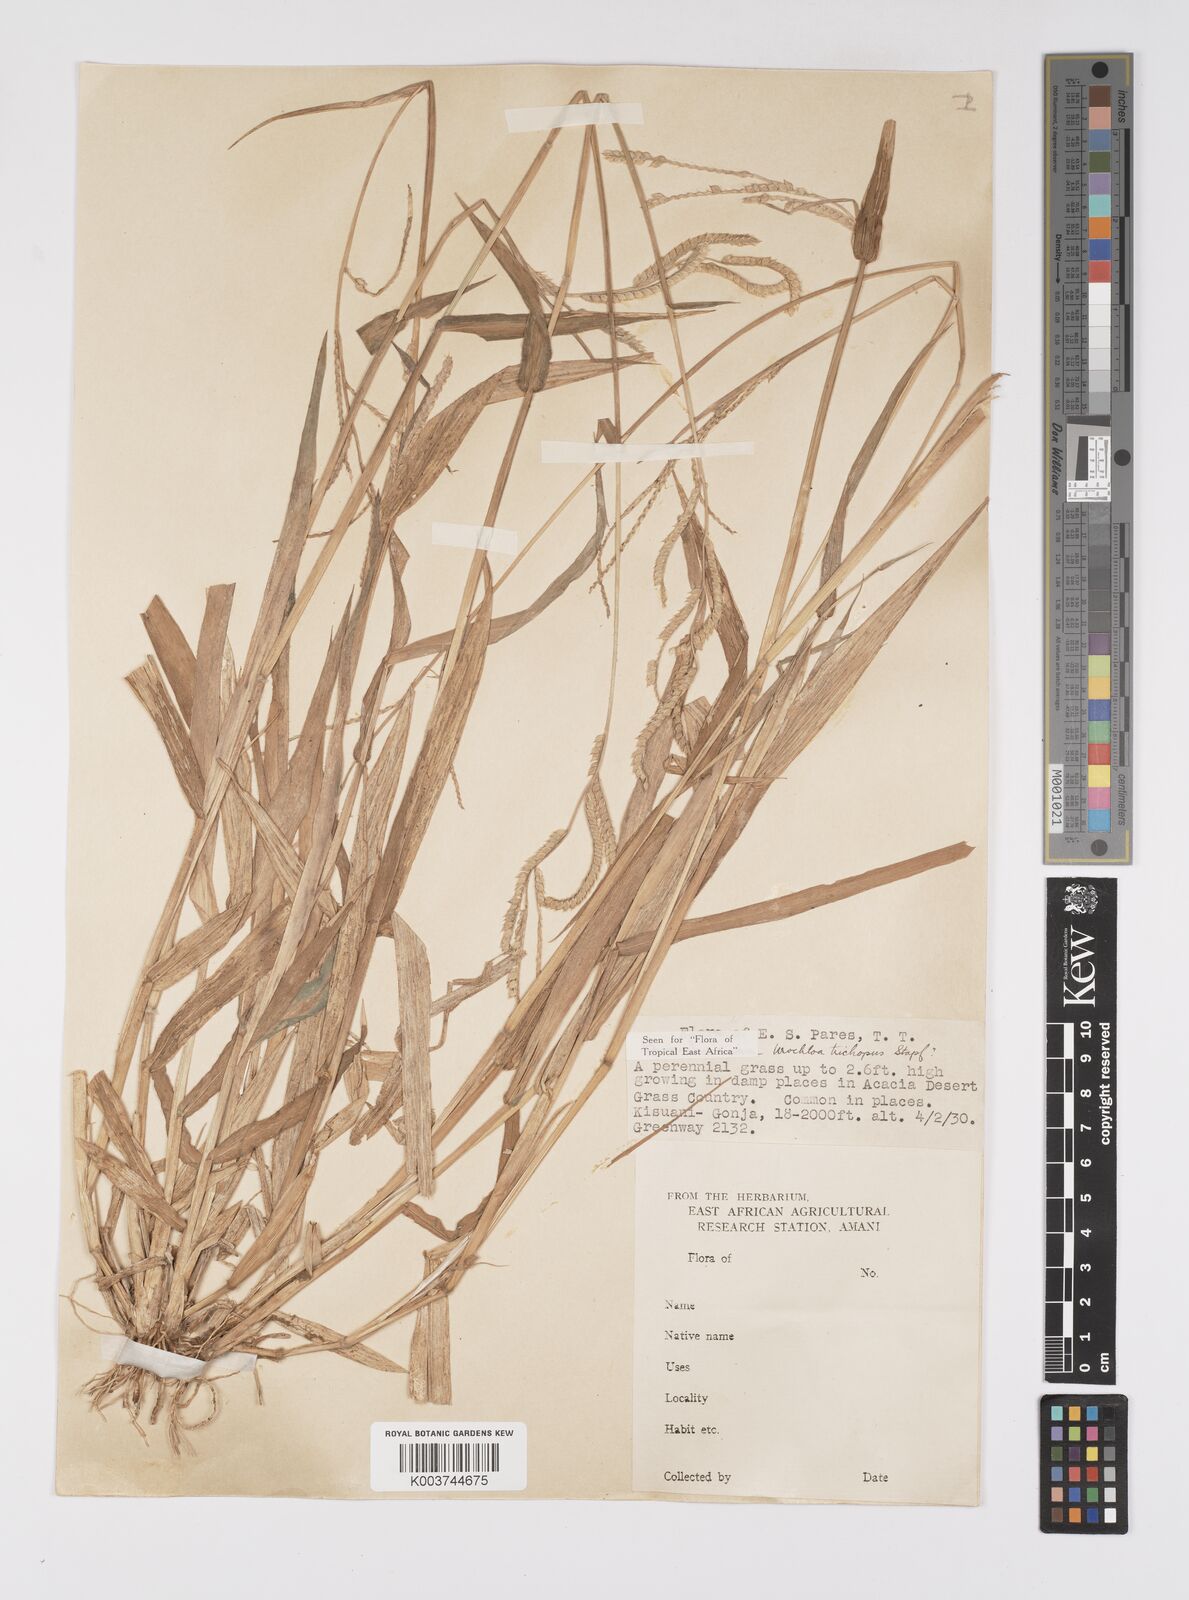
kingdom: Plantae
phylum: Tracheophyta
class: Liliopsida
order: Poales
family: Poaceae
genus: Urochloa
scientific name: Urochloa trichopus
